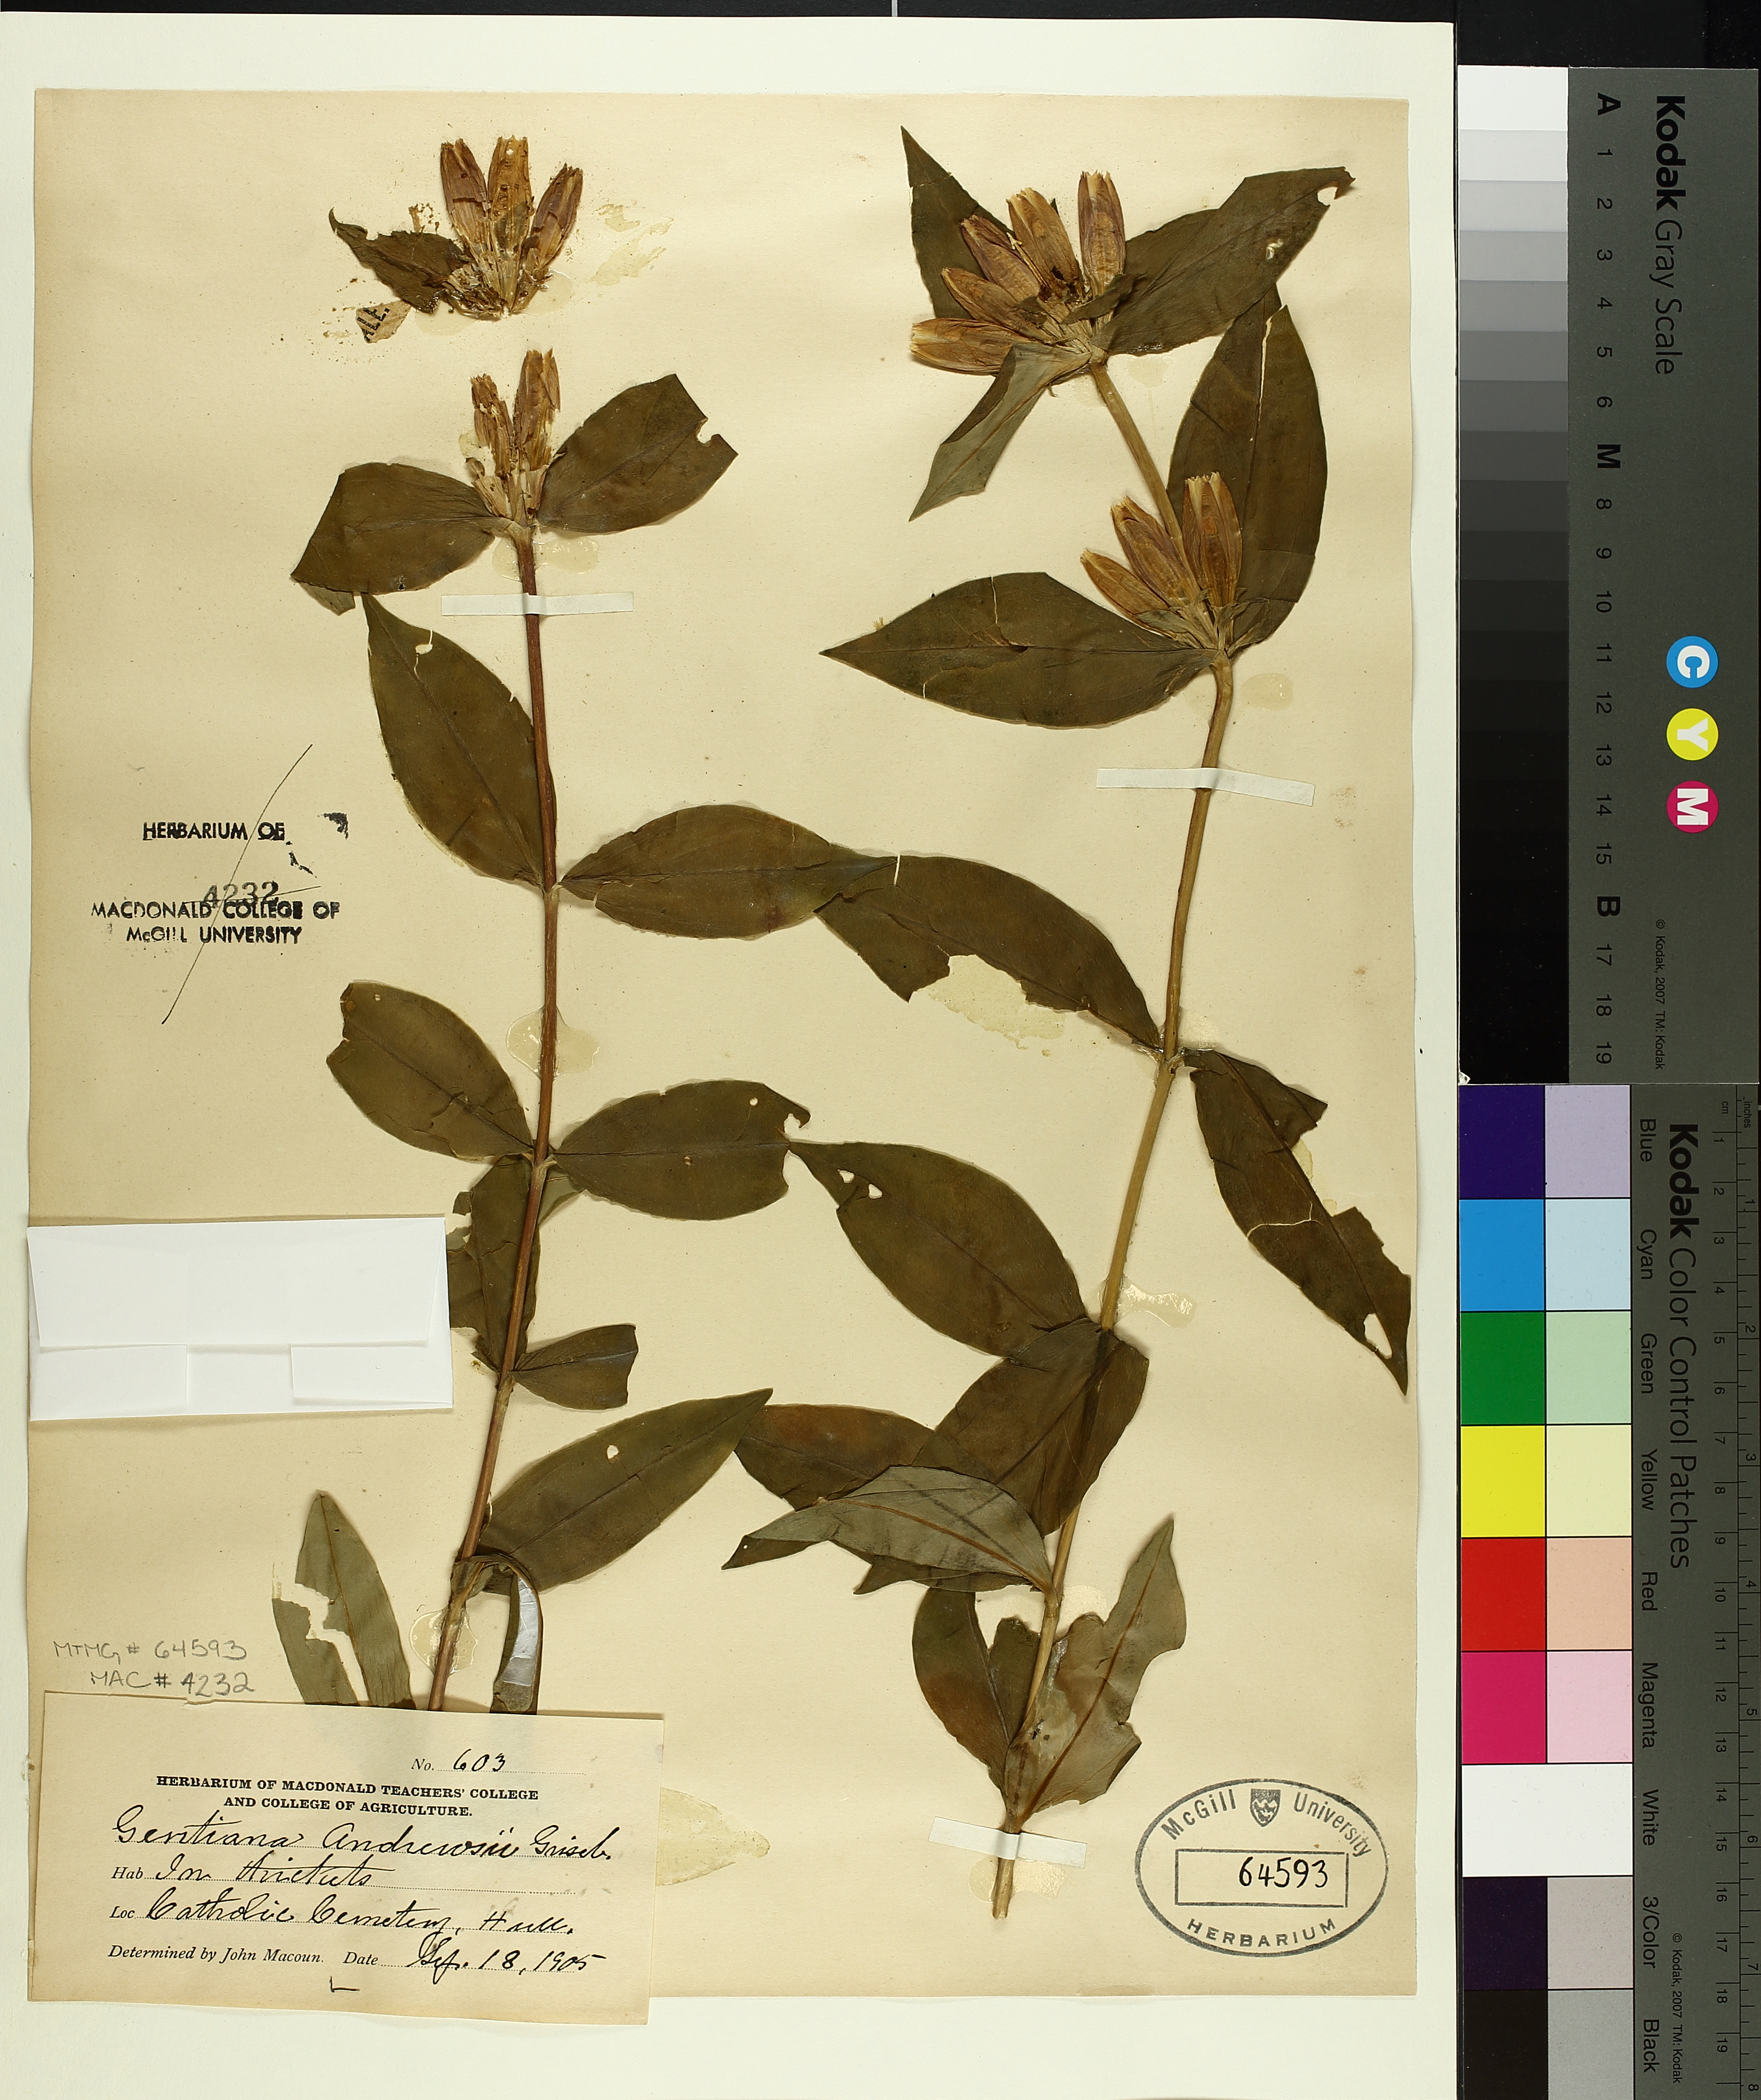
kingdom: Plantae
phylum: Tracheophyta
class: Magnoliopsida
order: Gentianales
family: Gentianaceae
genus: Gentiana
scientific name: Gentiana andrewsii
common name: Bottle gentian
